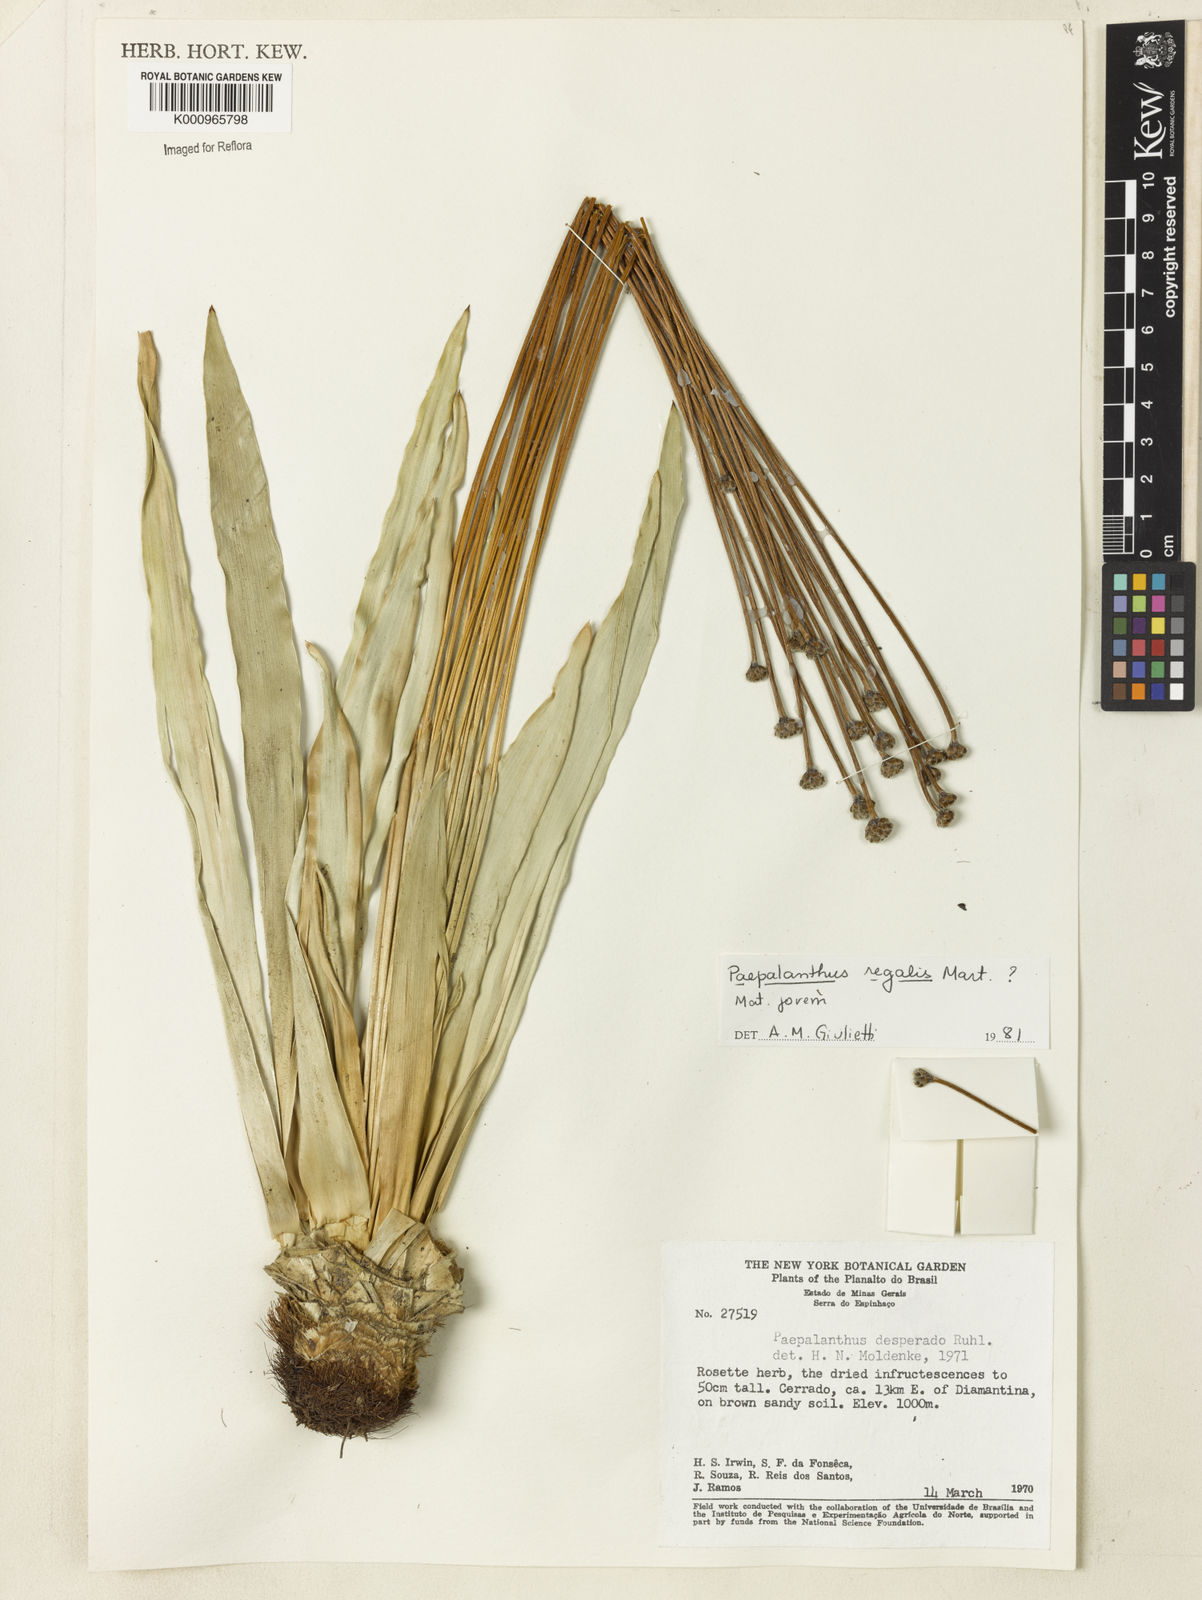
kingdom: Plantae
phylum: Tracheophyta
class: Liliopsida
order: Poales
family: Eriocaulaceae
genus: Paepalanthus
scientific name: Paepalanthus
